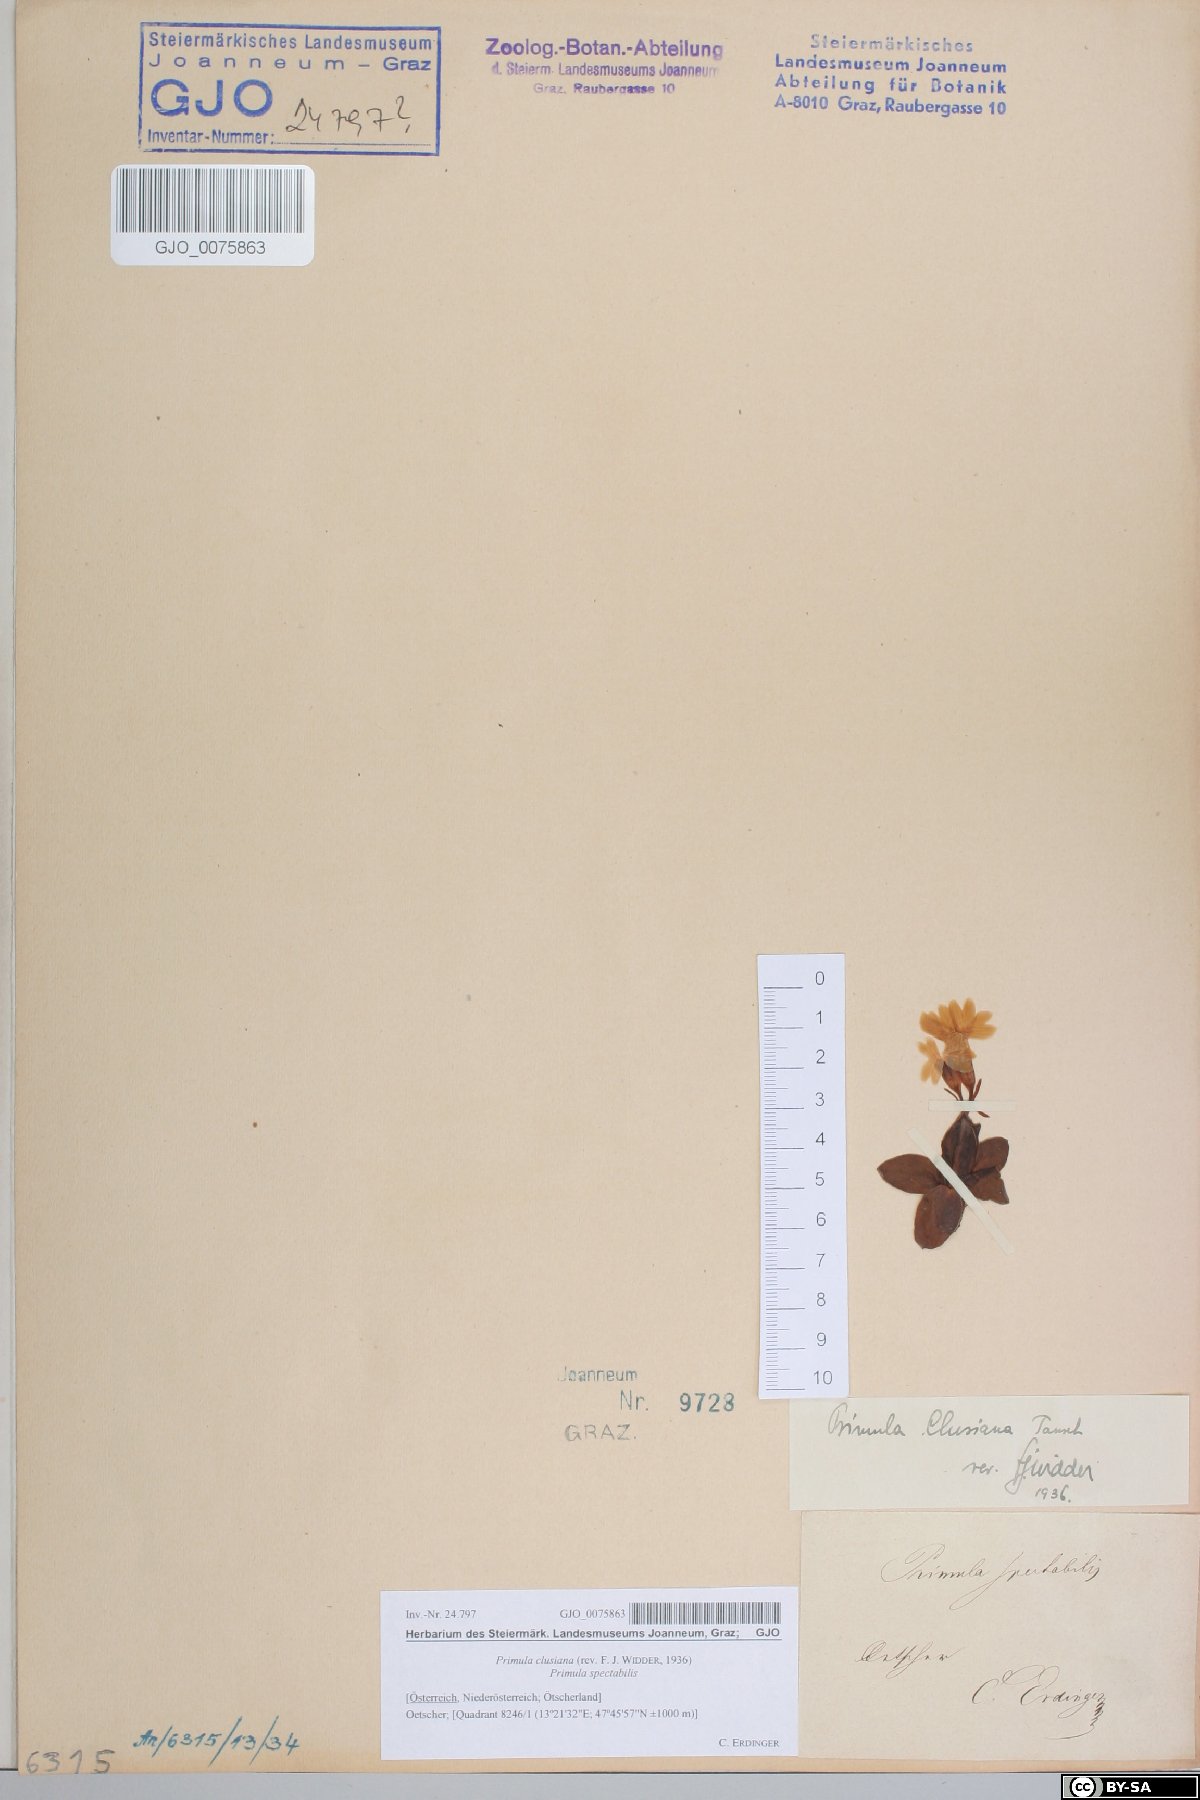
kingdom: Plantae
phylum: Tracheophyta
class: Magnoliopsida
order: Ericales
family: Primulaceae
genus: Primula
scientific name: Primula clusiana
